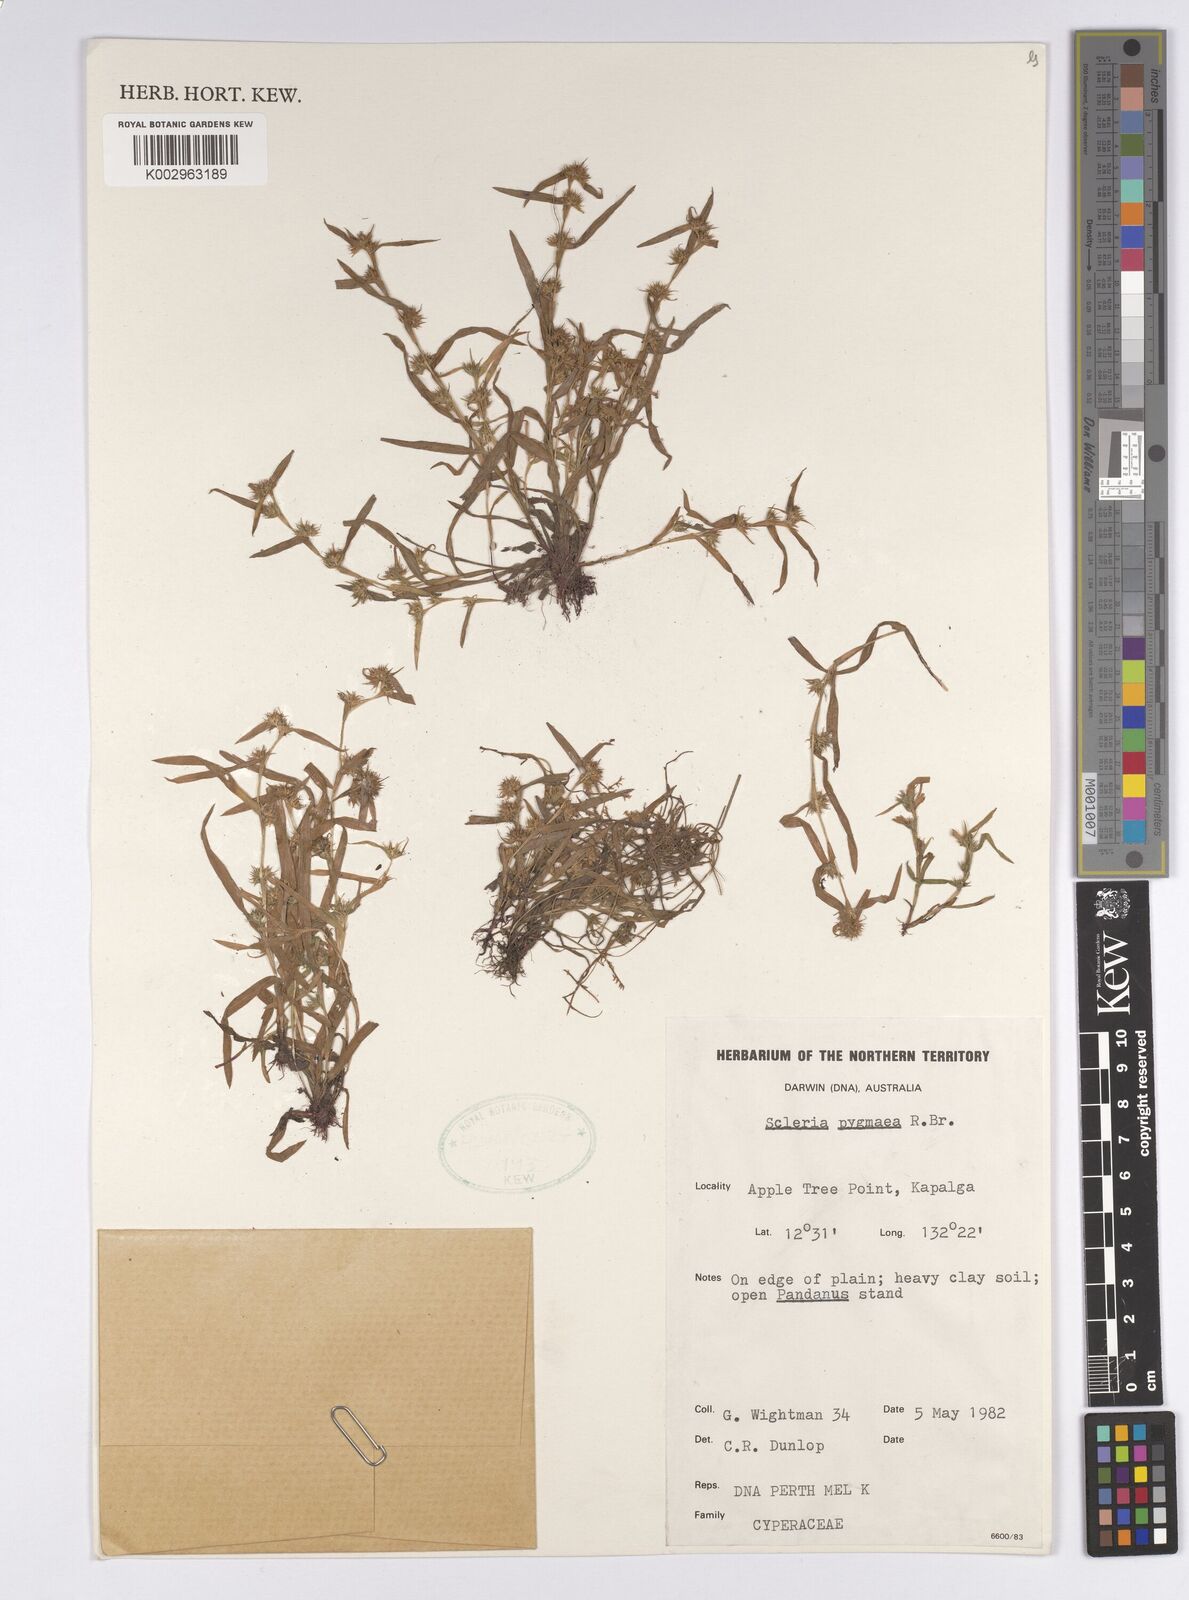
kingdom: Plantae
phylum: Tracheophyta
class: Liliopsida
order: Poales
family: Cyperaceae
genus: Diplacrum
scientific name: Diplacrum pygmaeum
